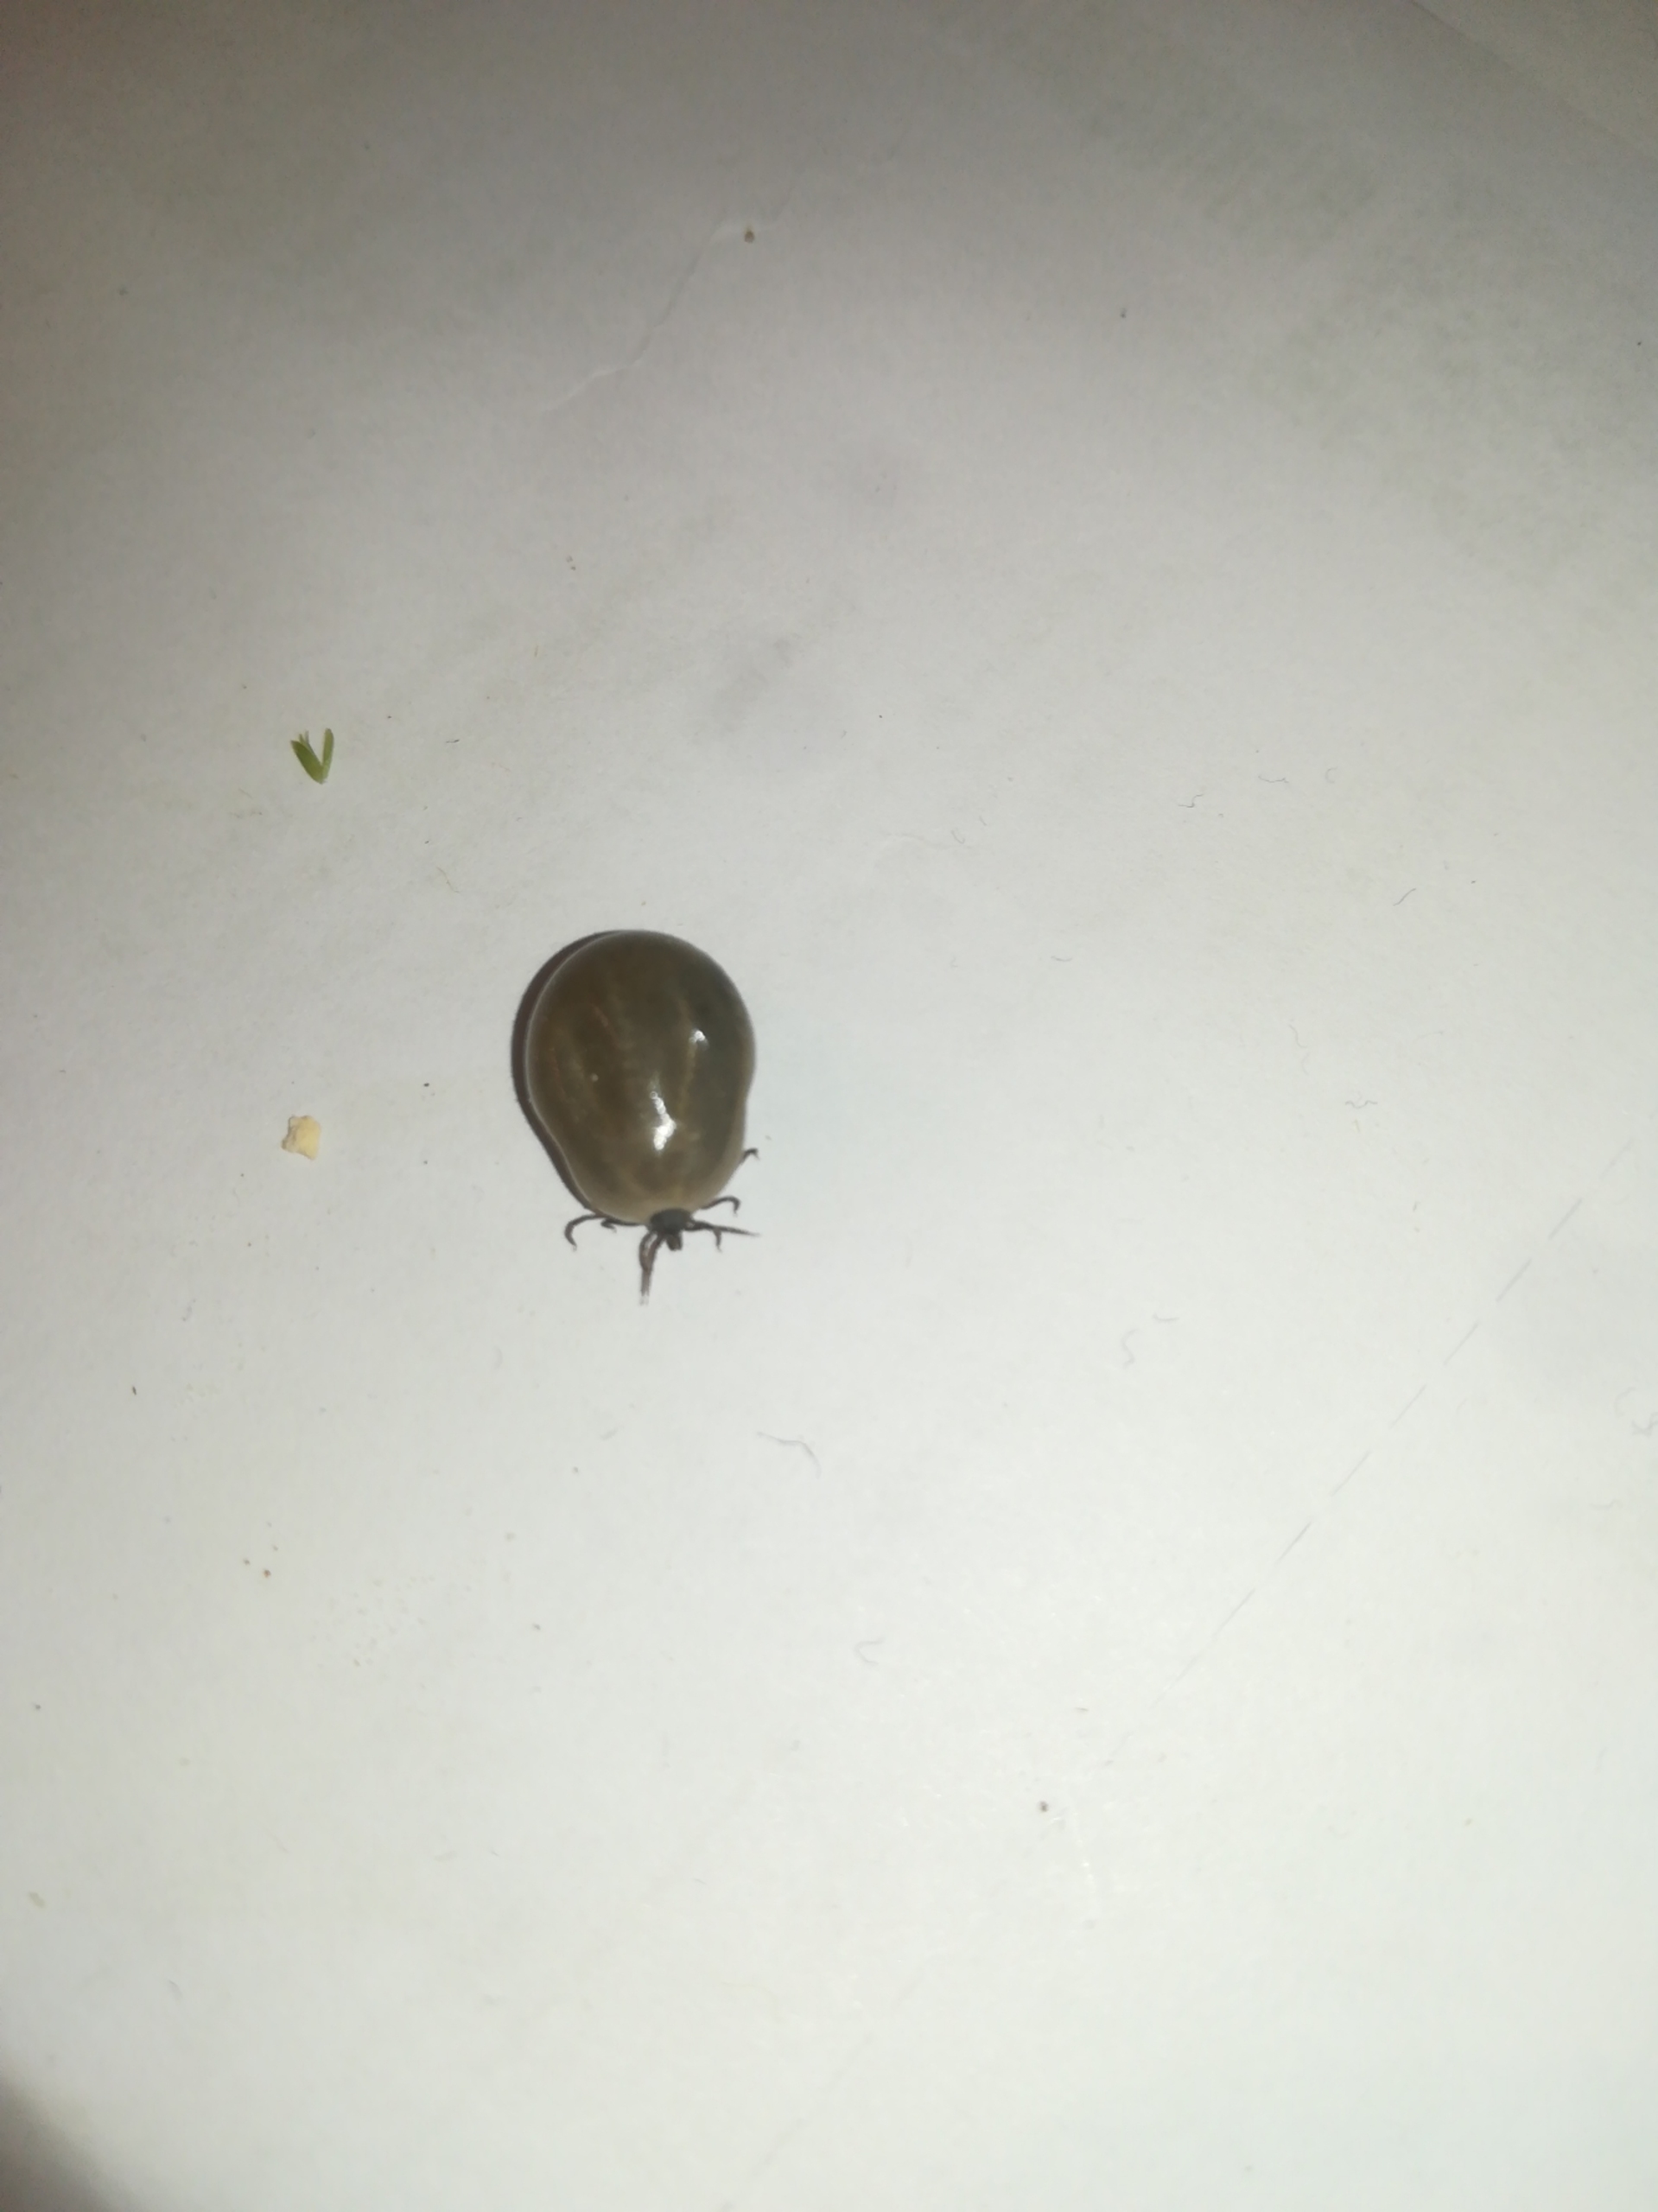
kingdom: Animalia
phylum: Arthropoda
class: Arachnida
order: Ixodida
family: Ixodidae
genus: Ixodes
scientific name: Ixodes ricinus
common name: Skovflåt
